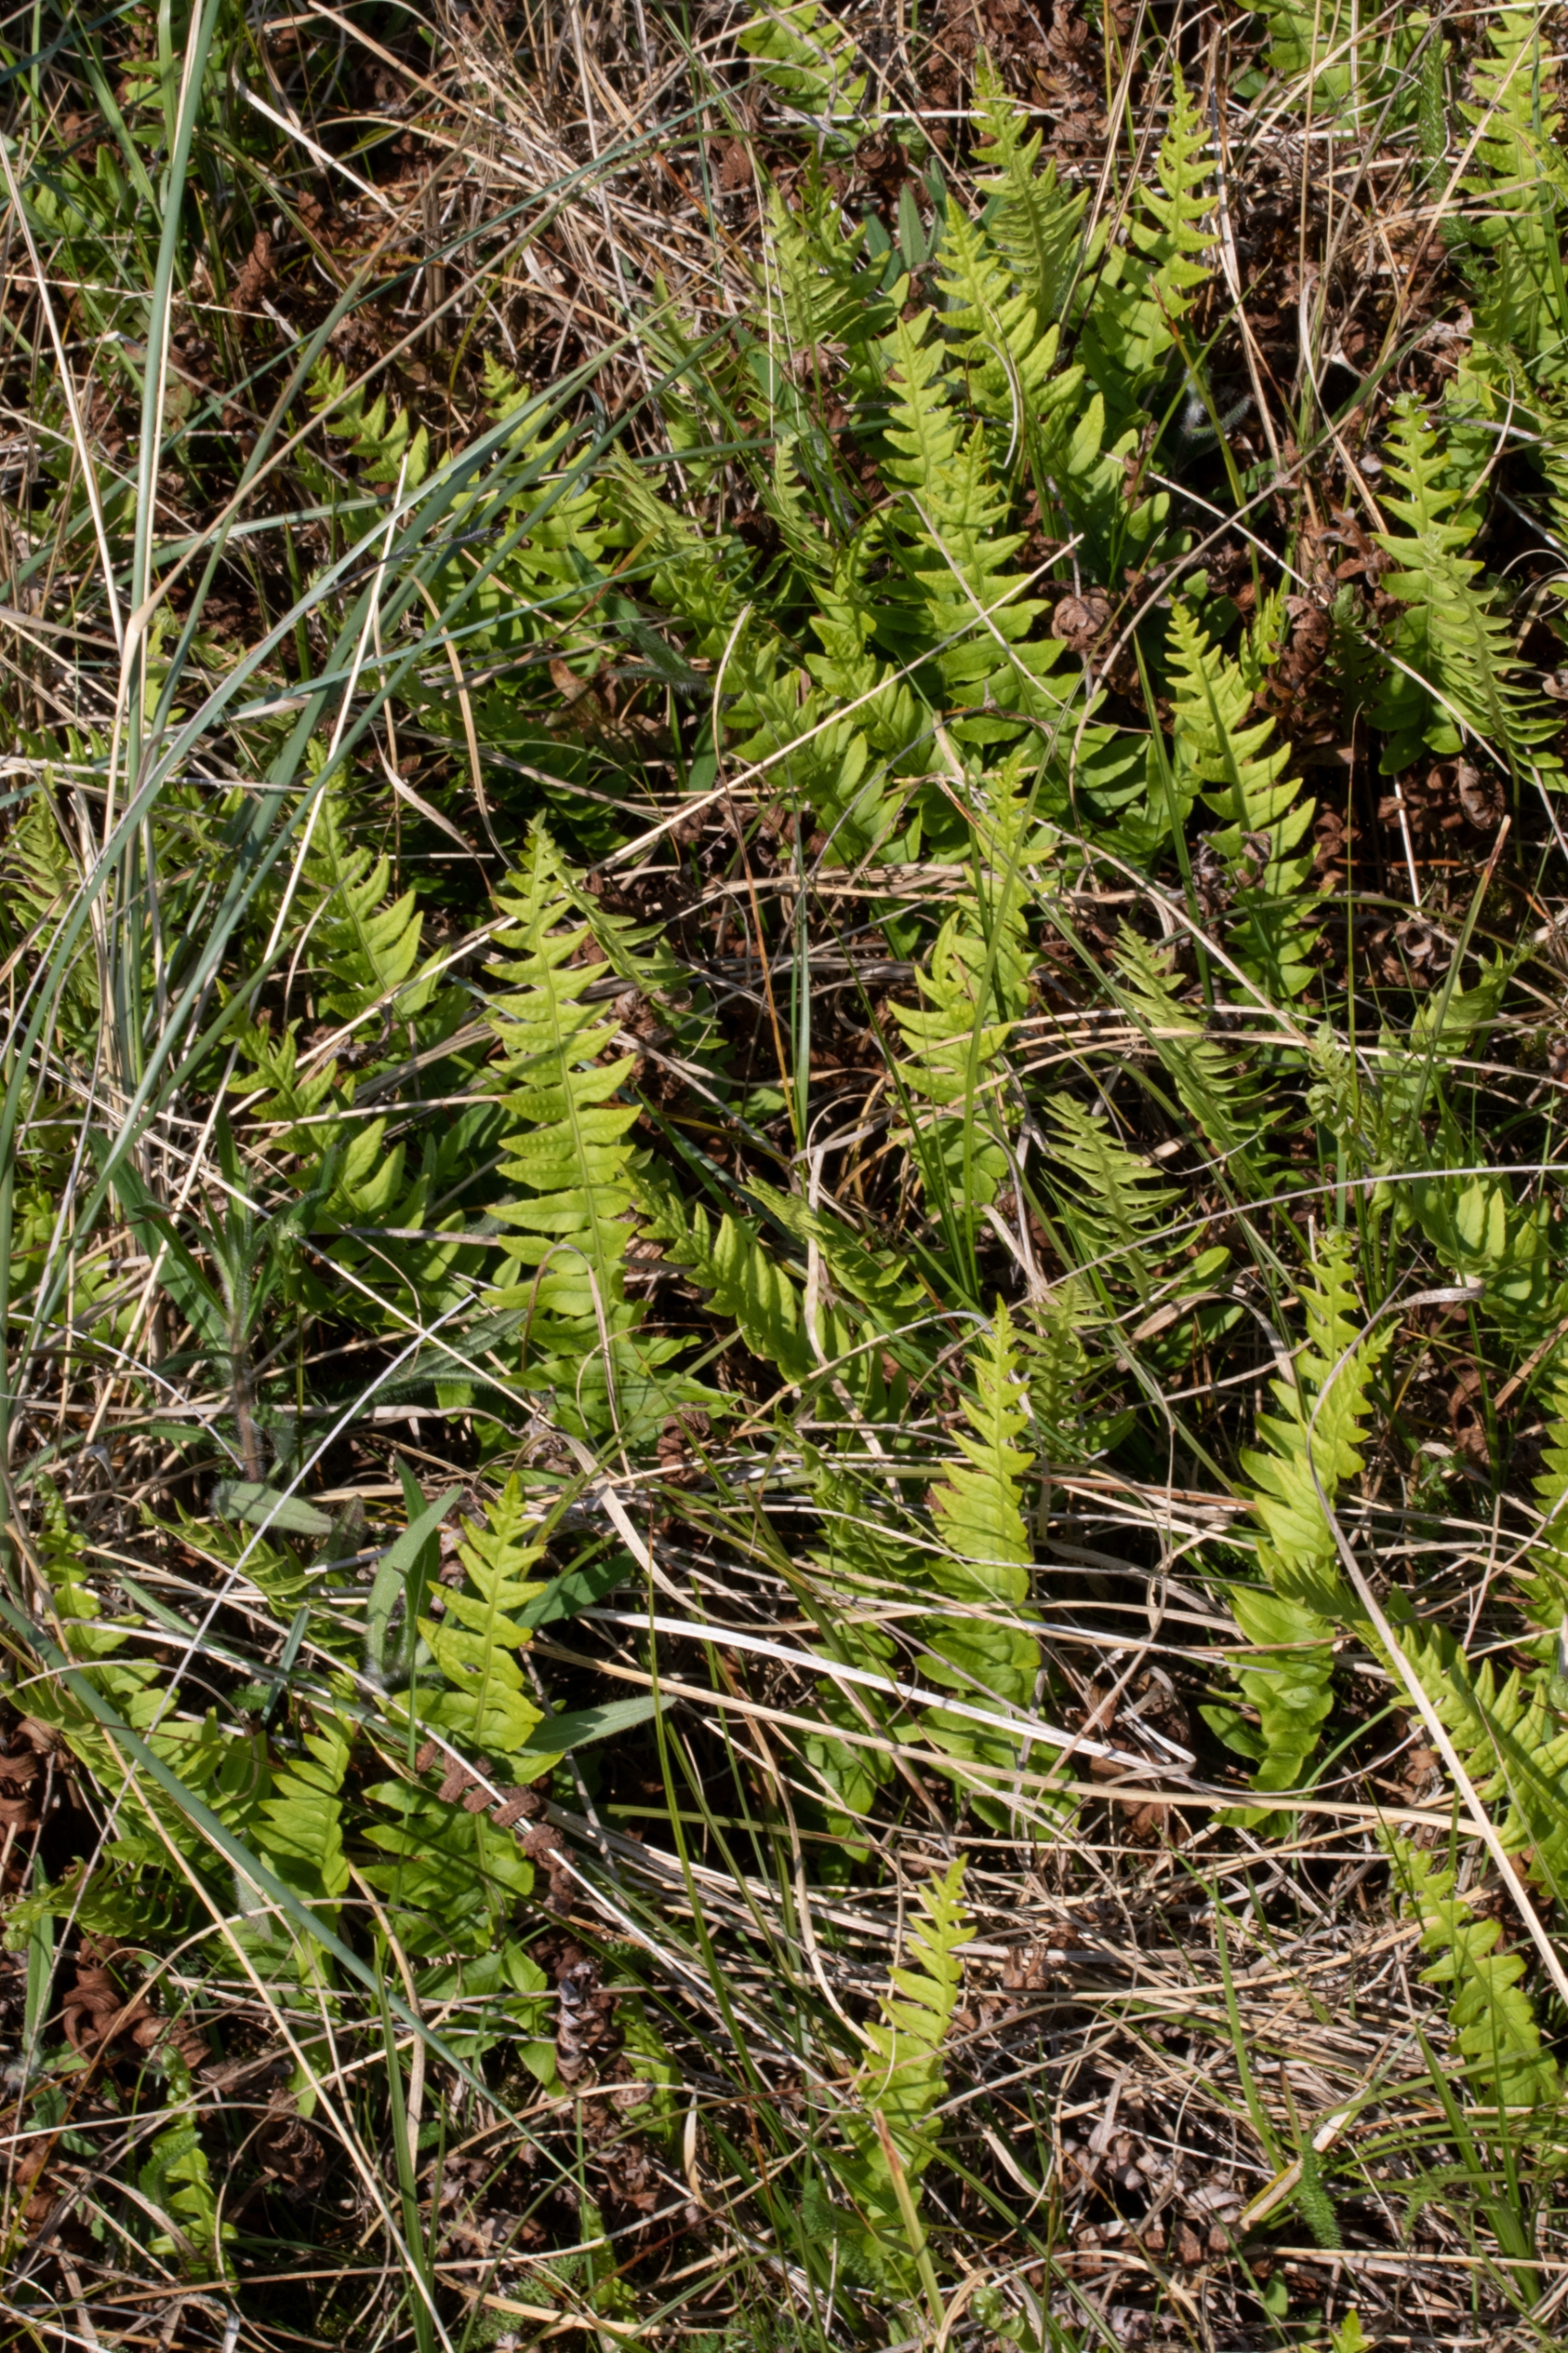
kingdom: Plantae
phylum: Tracheophyta
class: Polypodiopsida
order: Polypodiales
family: Polypodiaceae
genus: Polypodium
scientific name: Polypodium vulgare
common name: Almindelig engelsød
